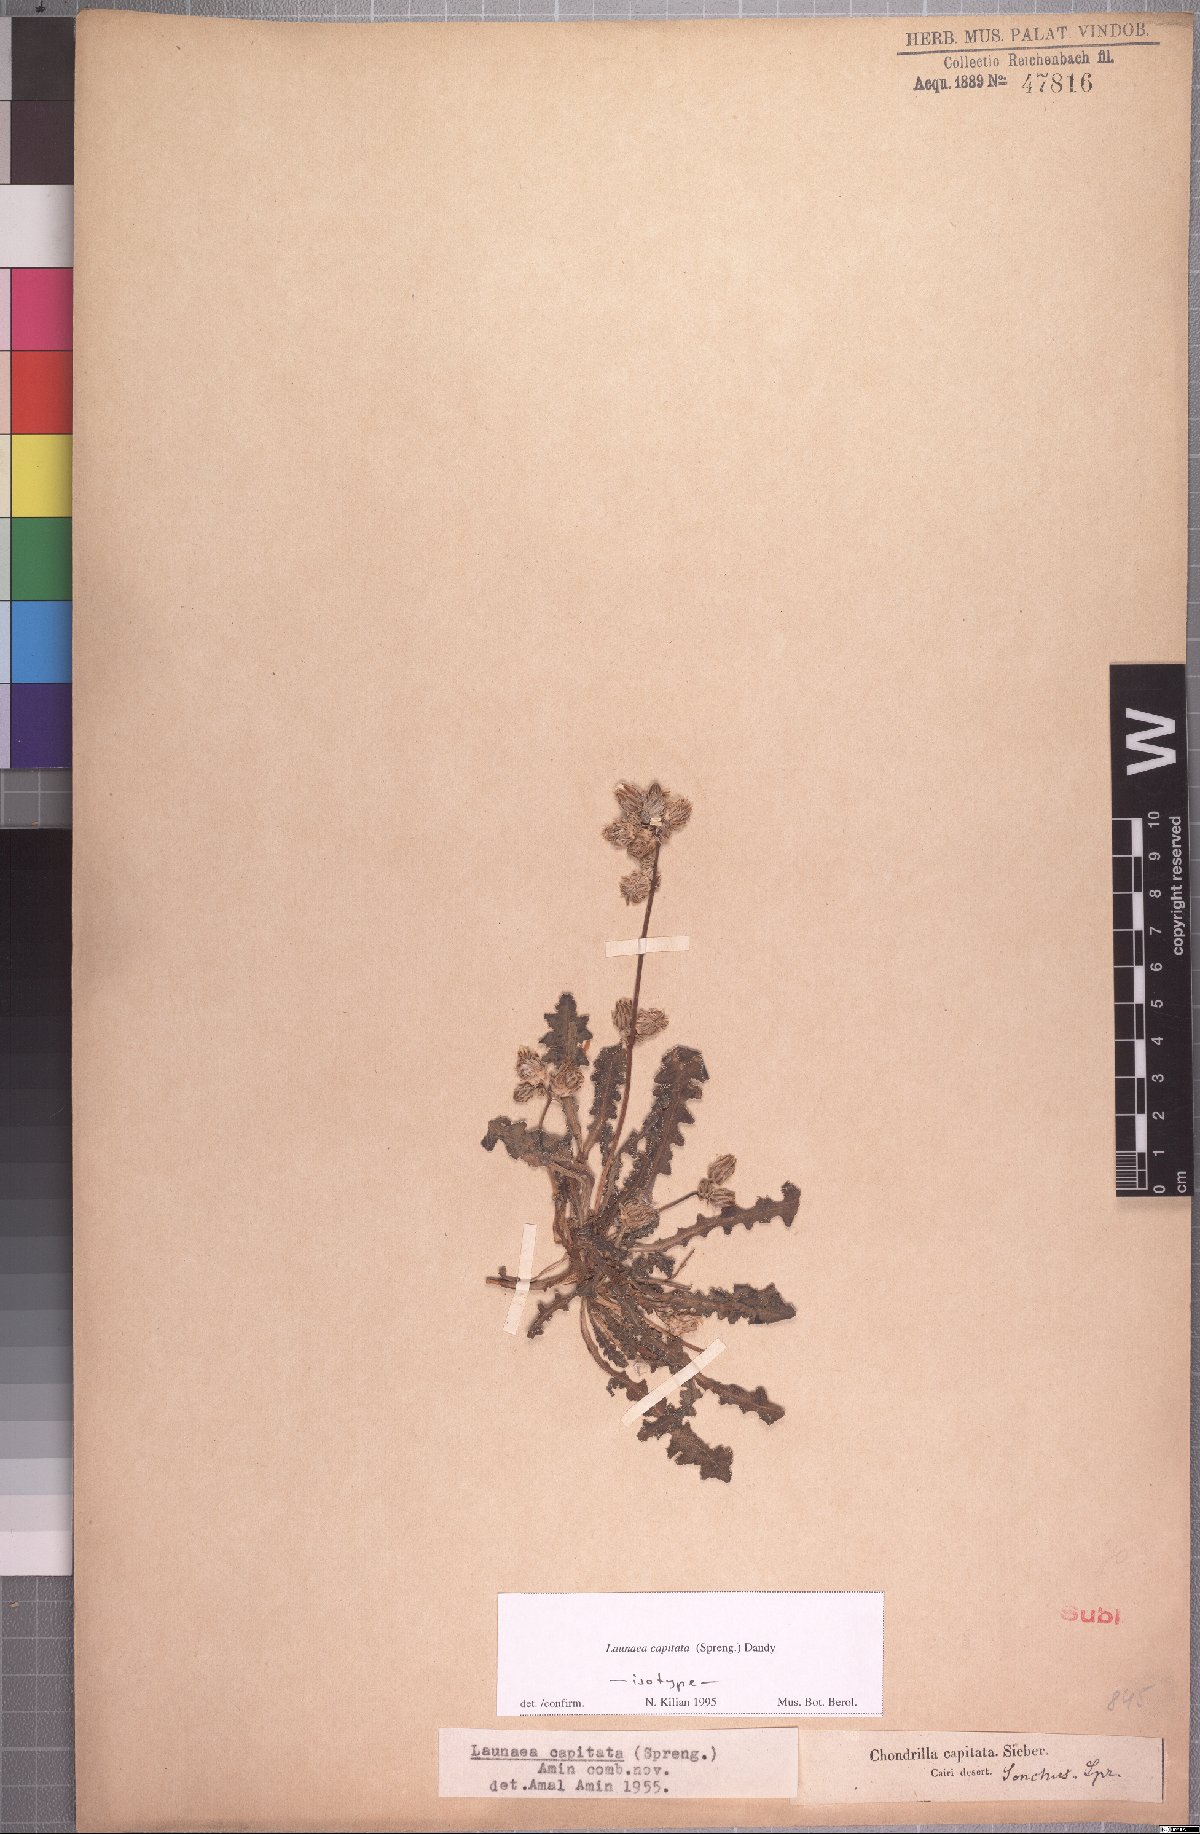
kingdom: Plantae
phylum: Tracheophyta
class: Magnoliopsida
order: Asterales
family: Asteraceae
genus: Launaea
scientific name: Launaea capitata
